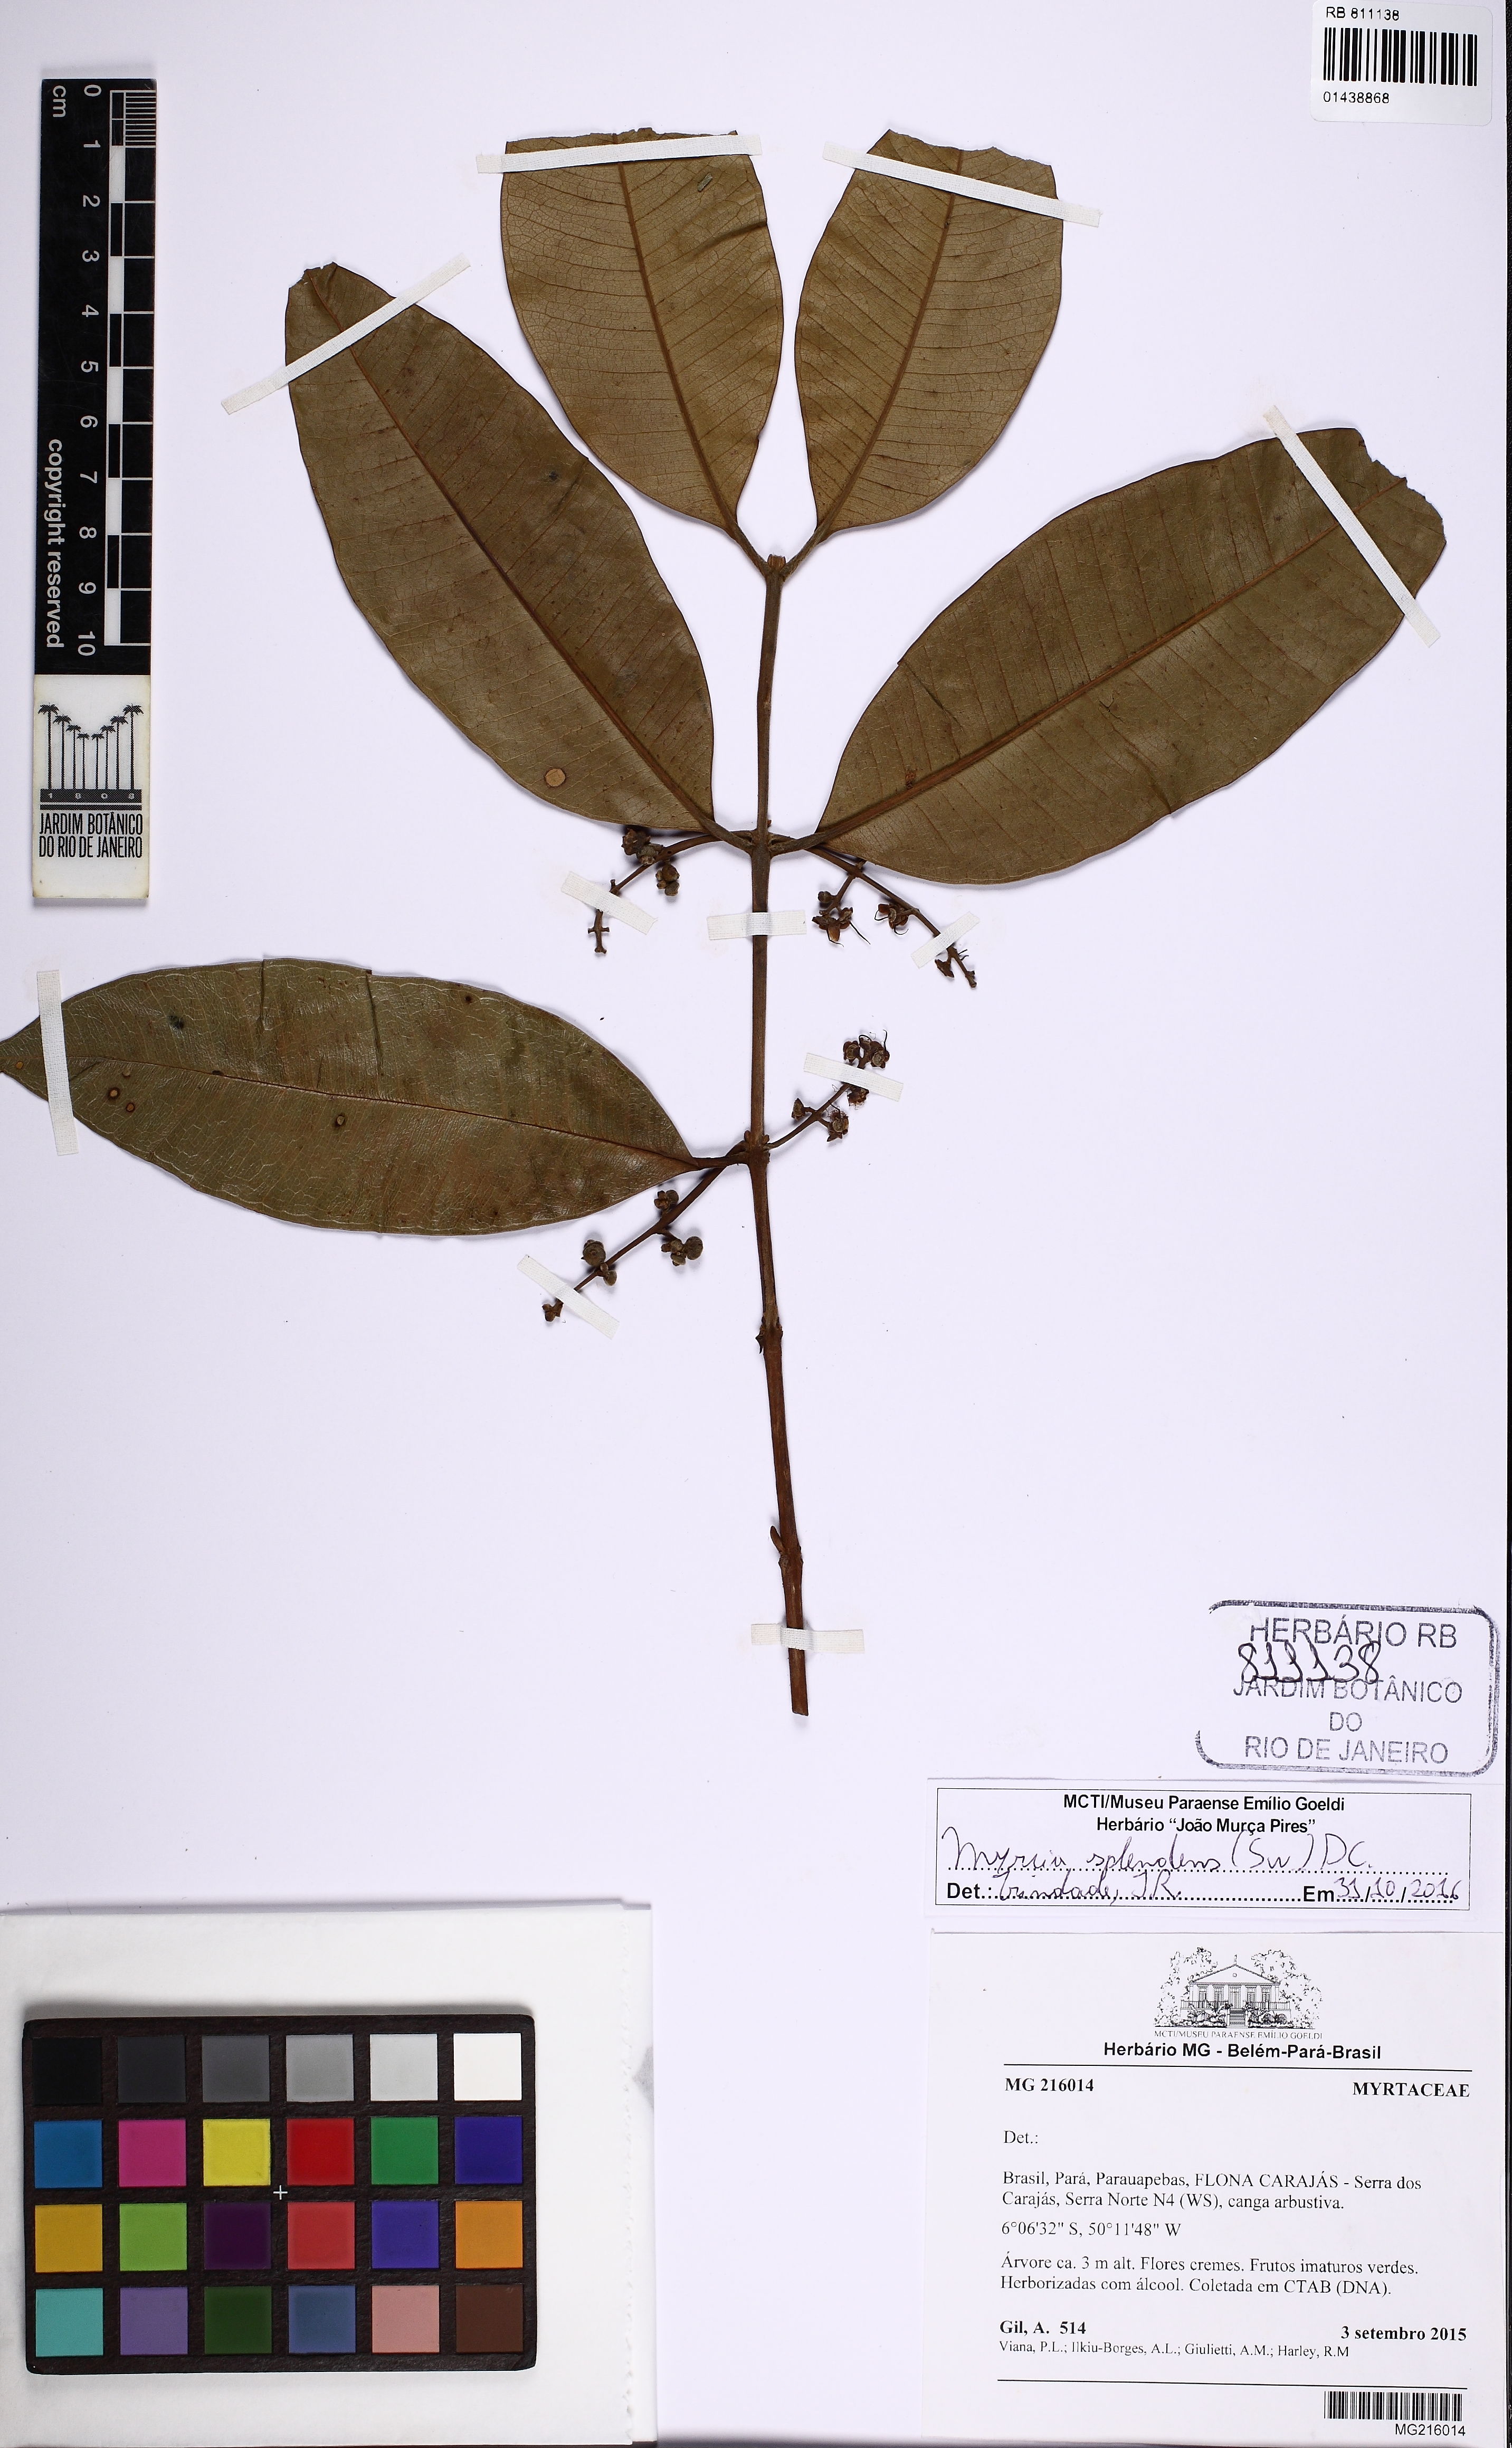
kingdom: Plantae
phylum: Tracheophyta
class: Magnoliopsida
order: Myrtales
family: Myrtaceae
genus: Myrcia
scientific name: Myrcia splendens
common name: Surinam cherry
